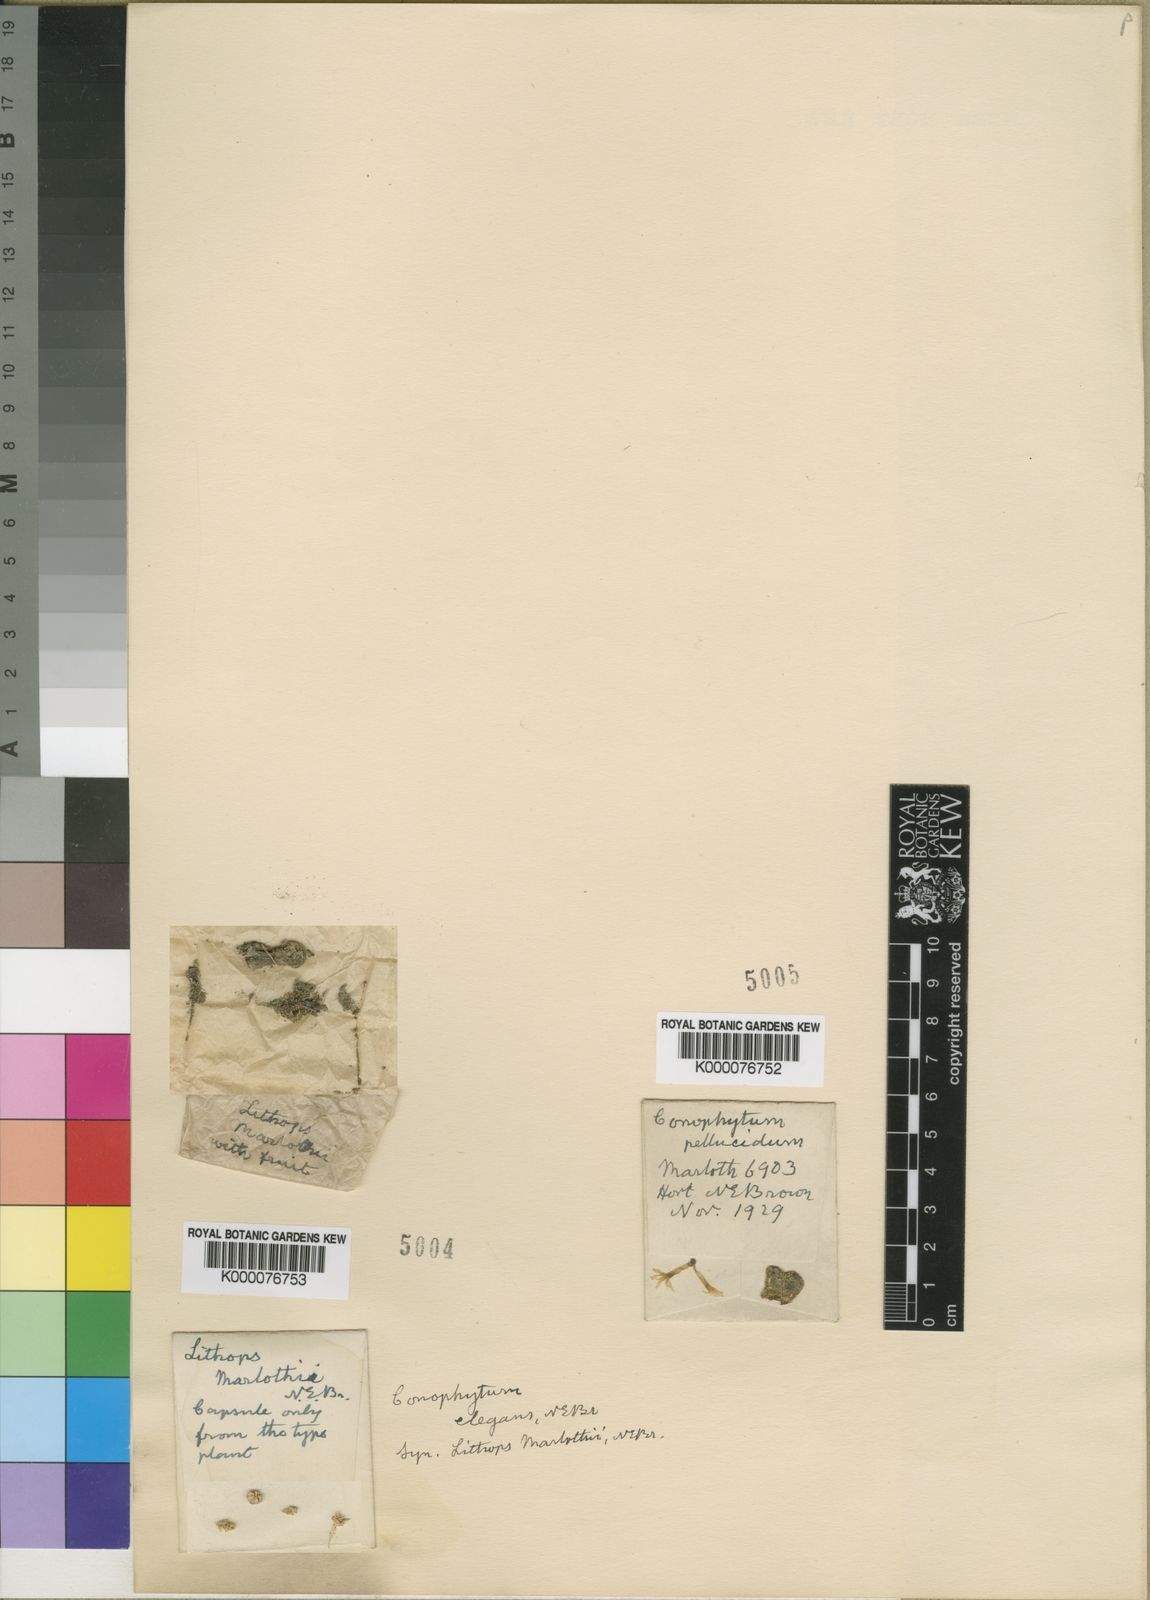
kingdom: Plantae
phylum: Tracheophyta
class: Magnoliopsida
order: Caryophyllales
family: Aizoaceae
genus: Conophytum
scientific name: Conophytum pellucidum
